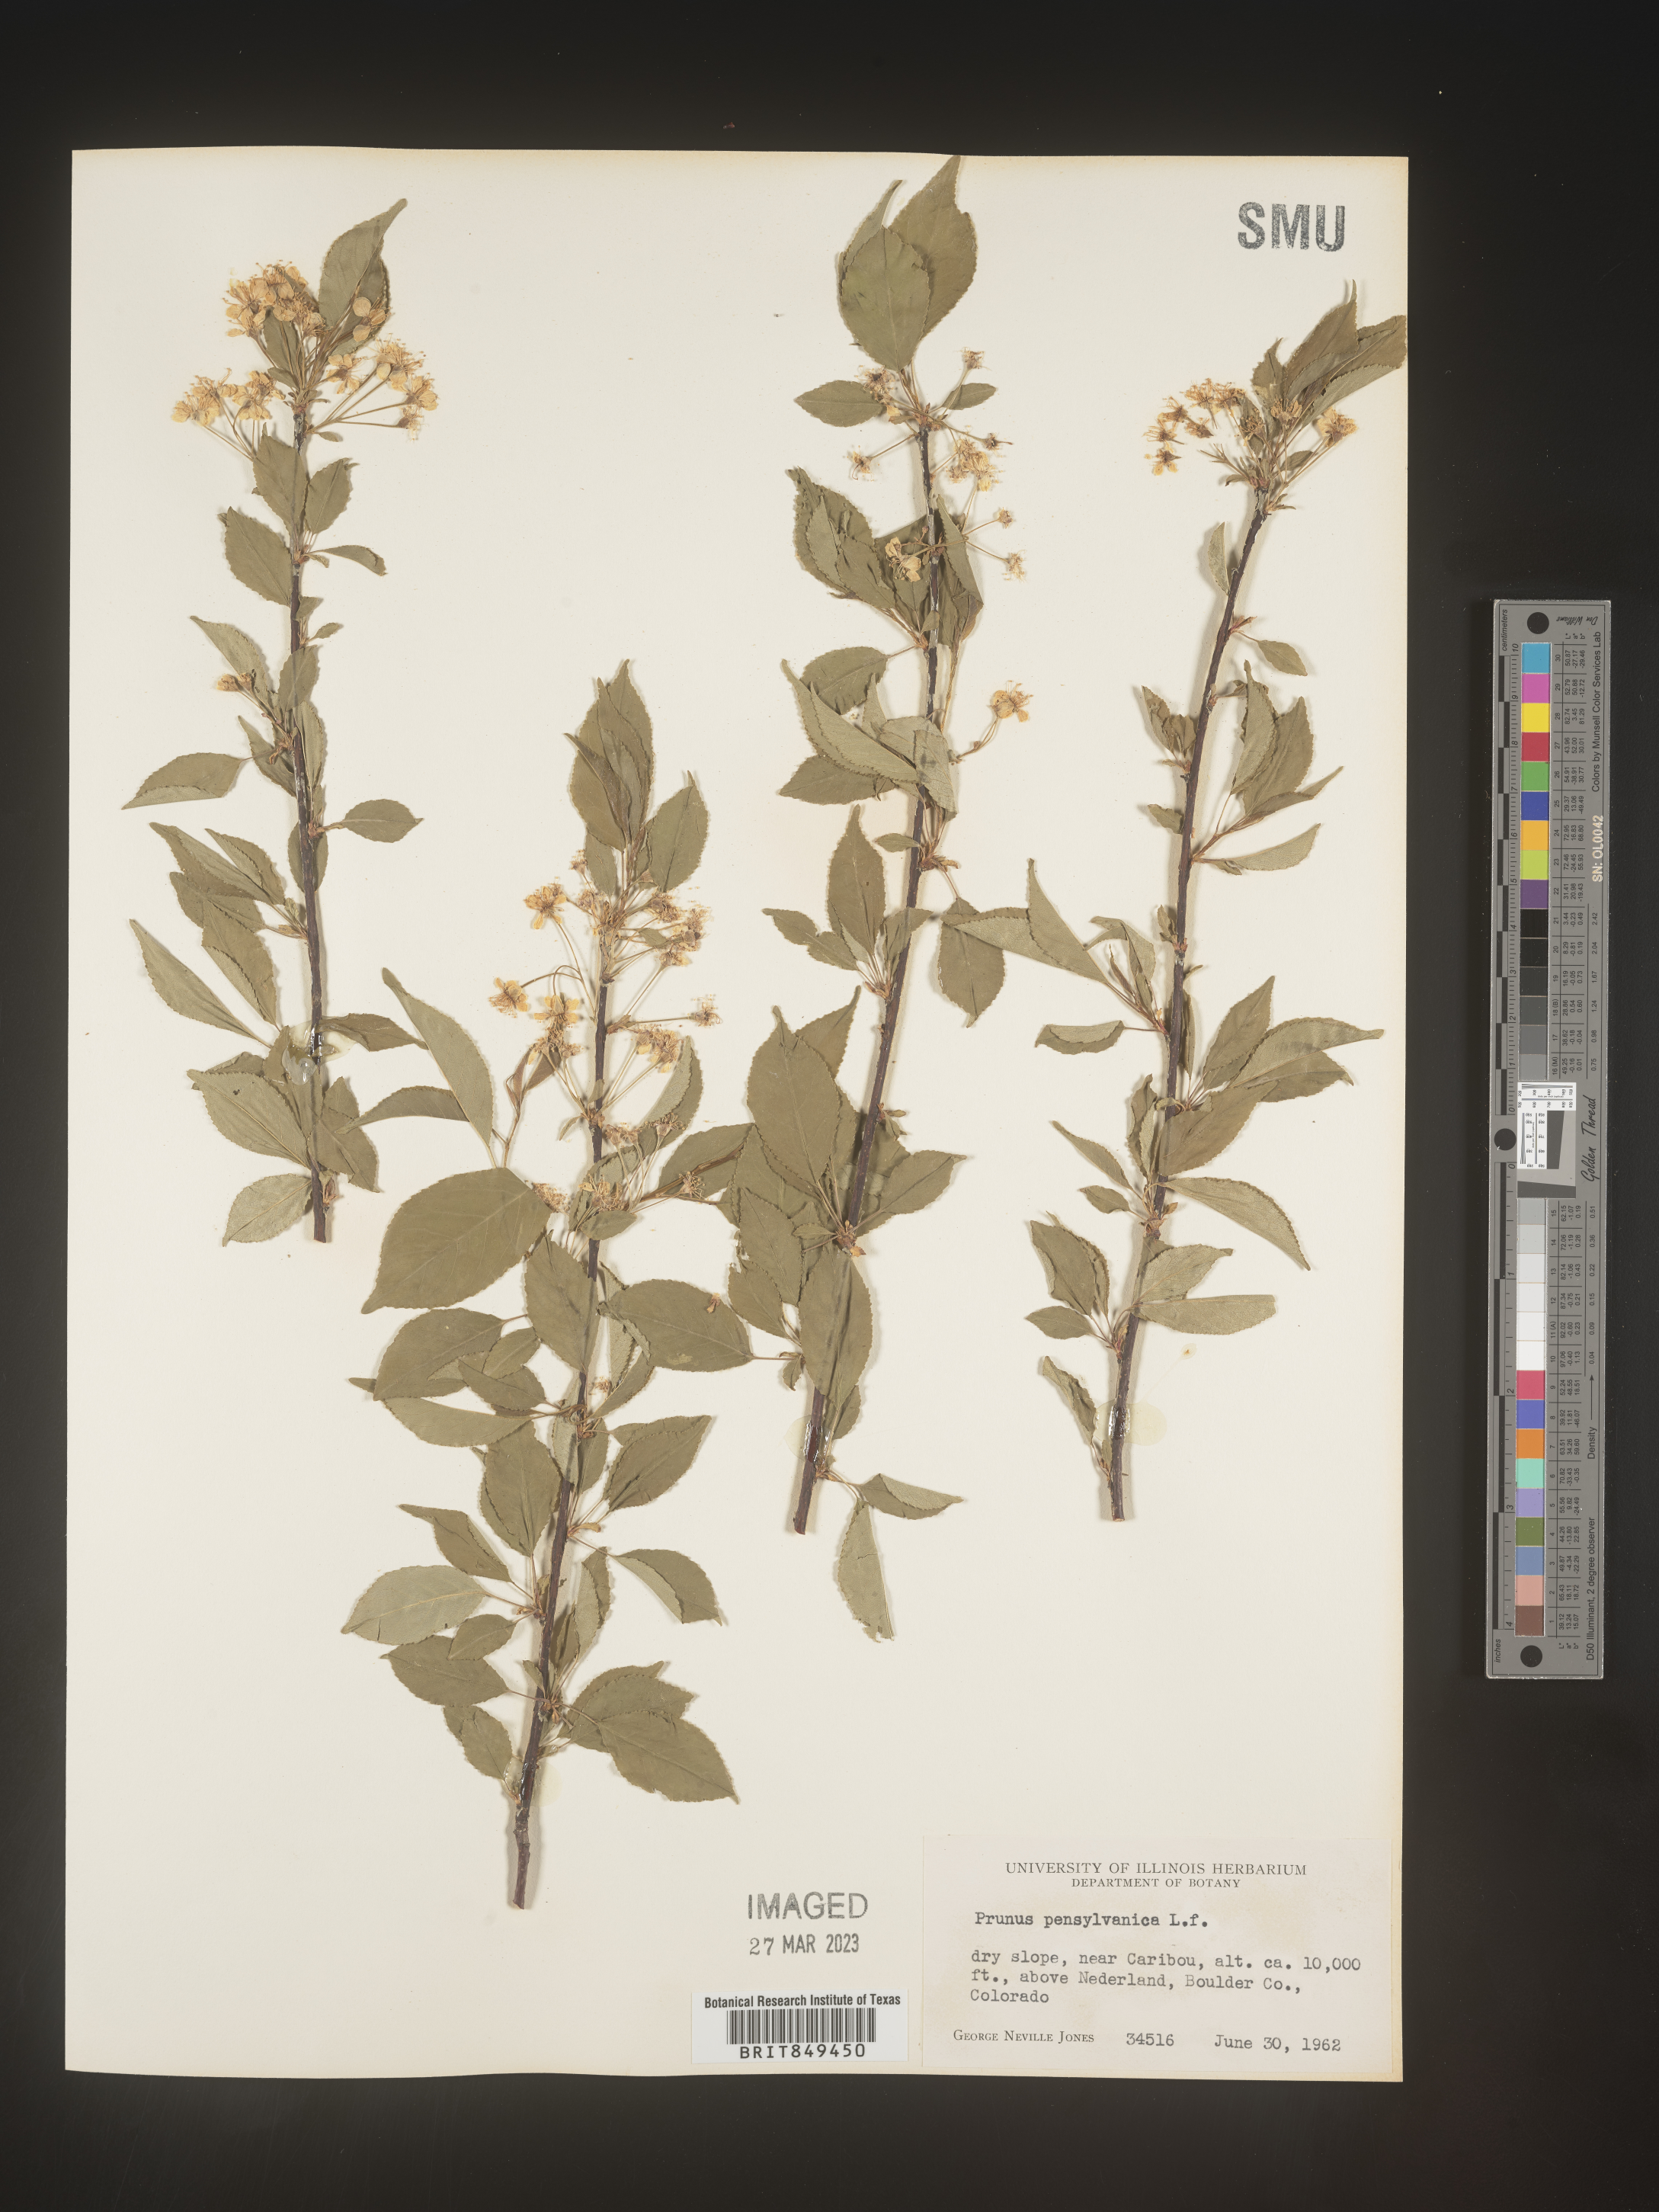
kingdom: Plantae
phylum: Tracheophyta
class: Magnoliopsida
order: Rosales
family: Rosaceae
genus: Prunus
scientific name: Prunus pensylvanica
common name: Pin cherry
